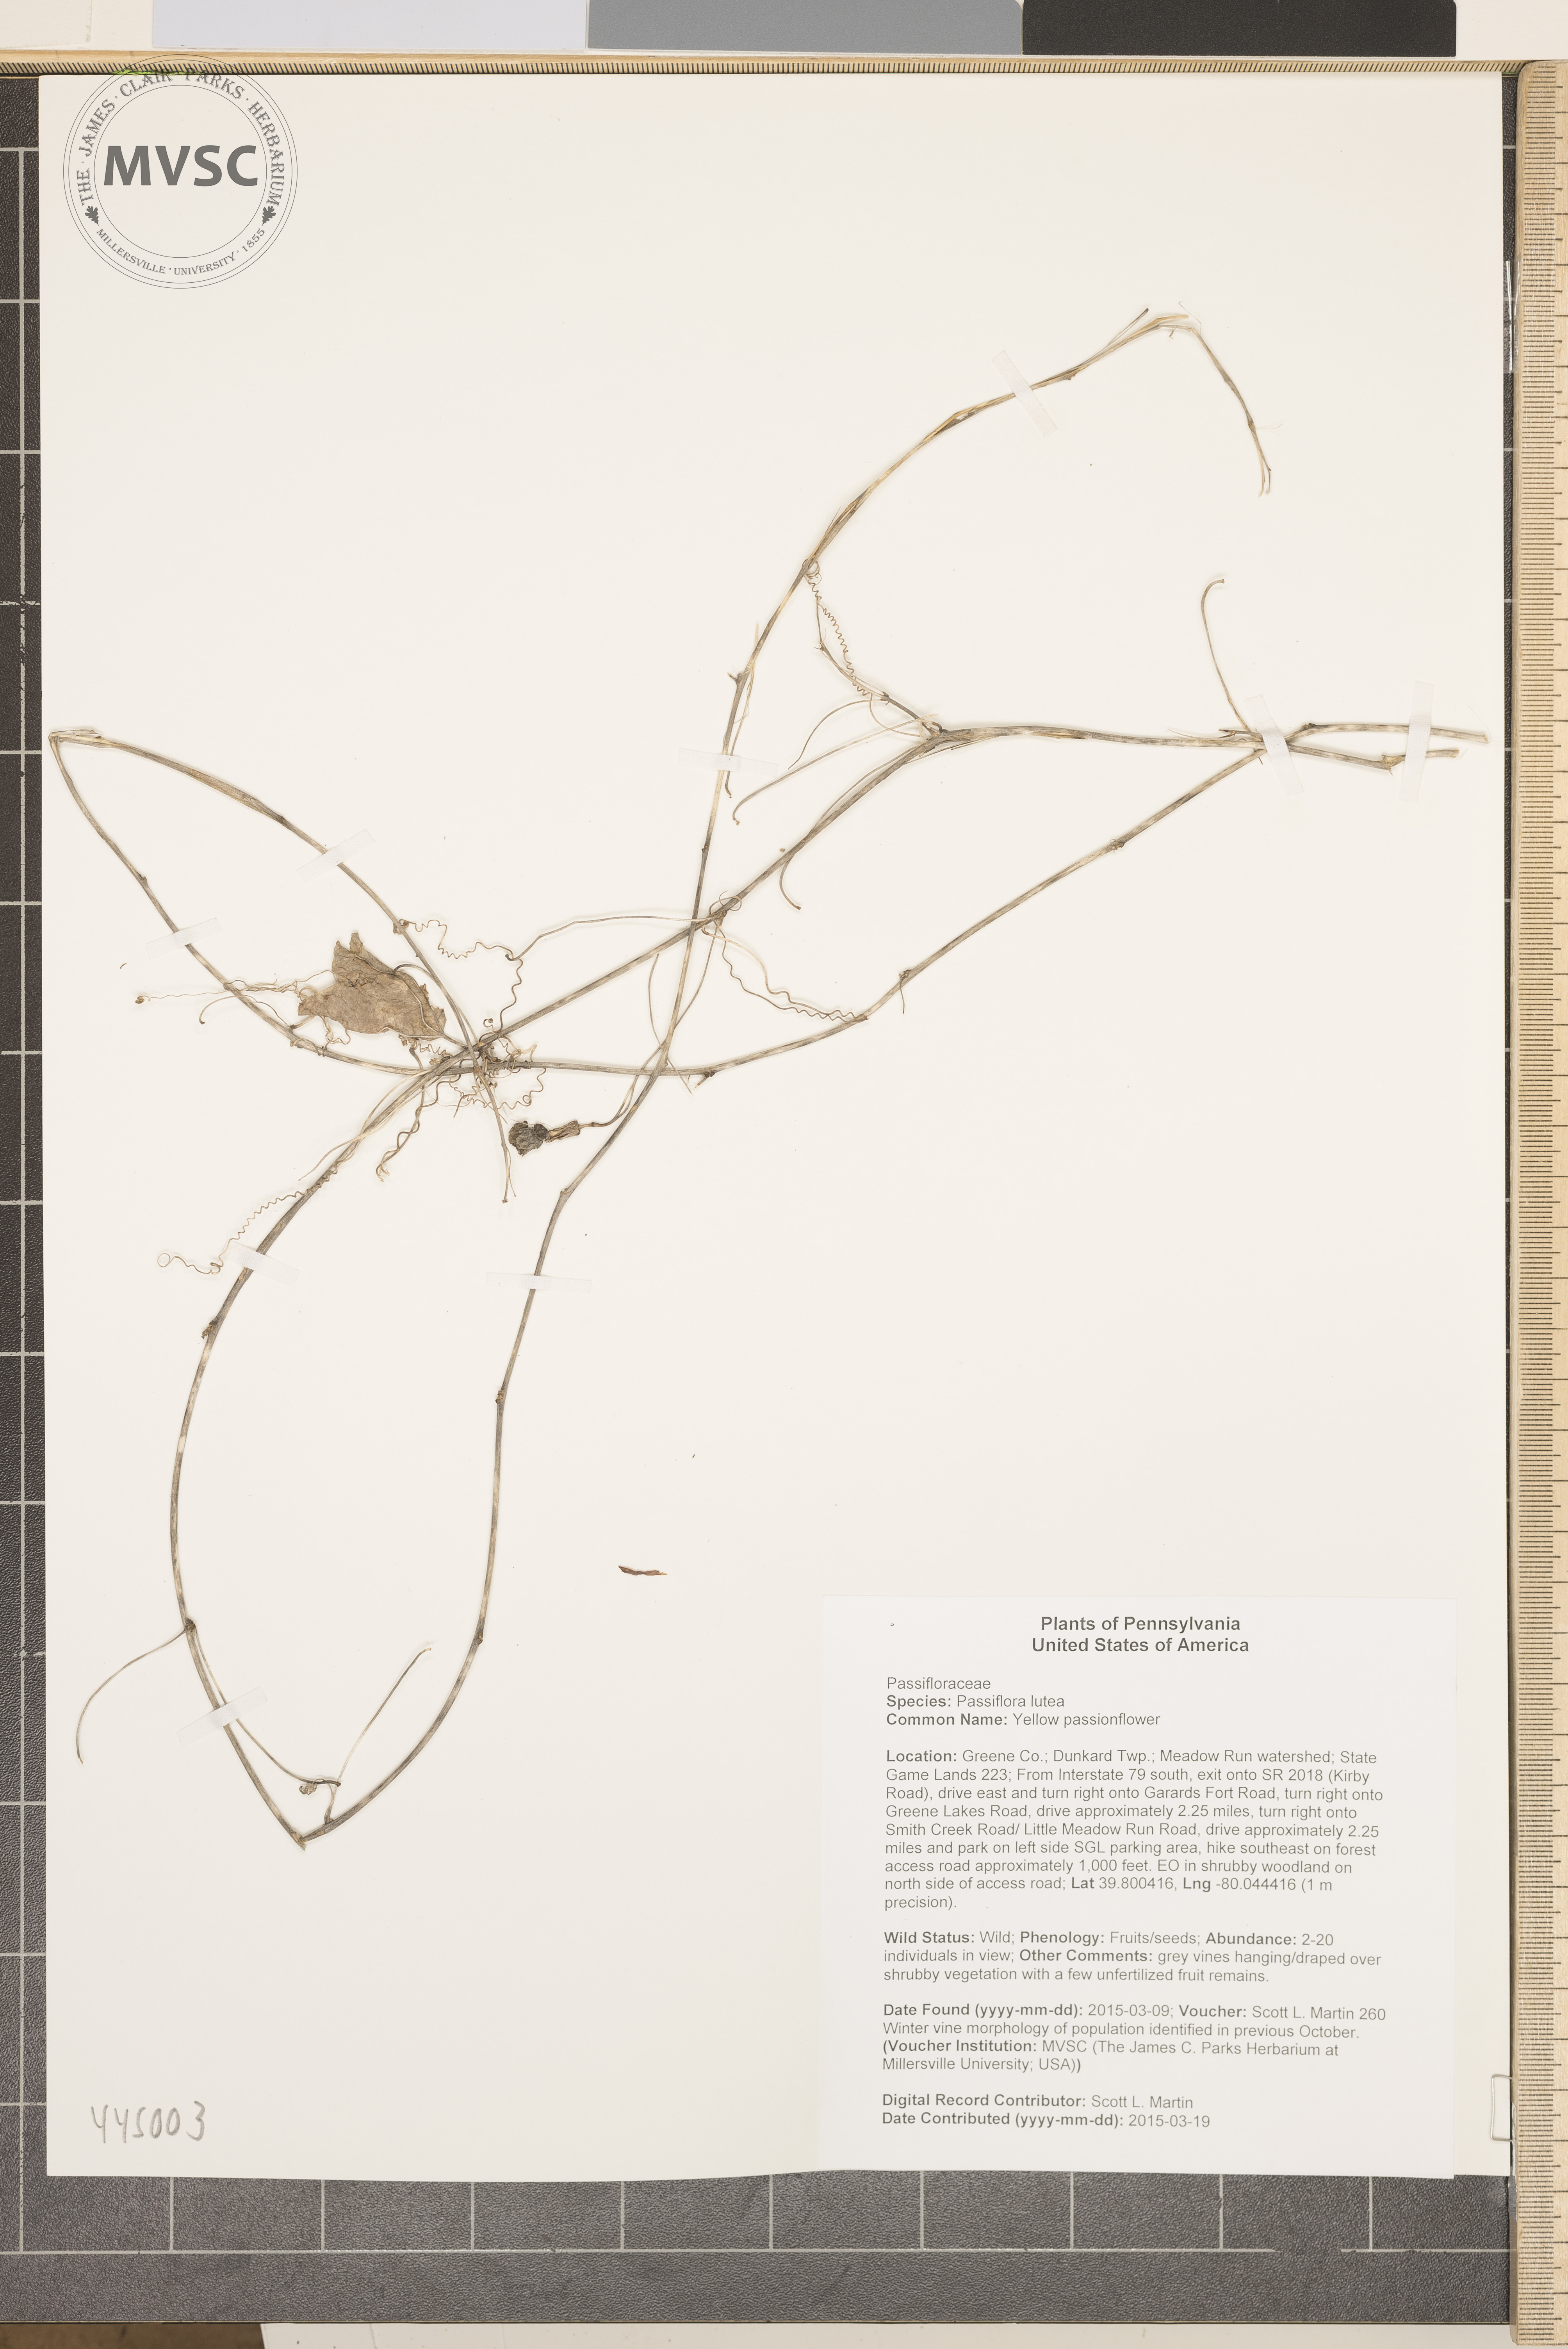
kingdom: Plantae
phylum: Tracheophyta
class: Magnoliopsida
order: Malpighiales
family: Passifloraceae
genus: Passiflora
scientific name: Passiflora lutea
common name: Yellow passionflower
